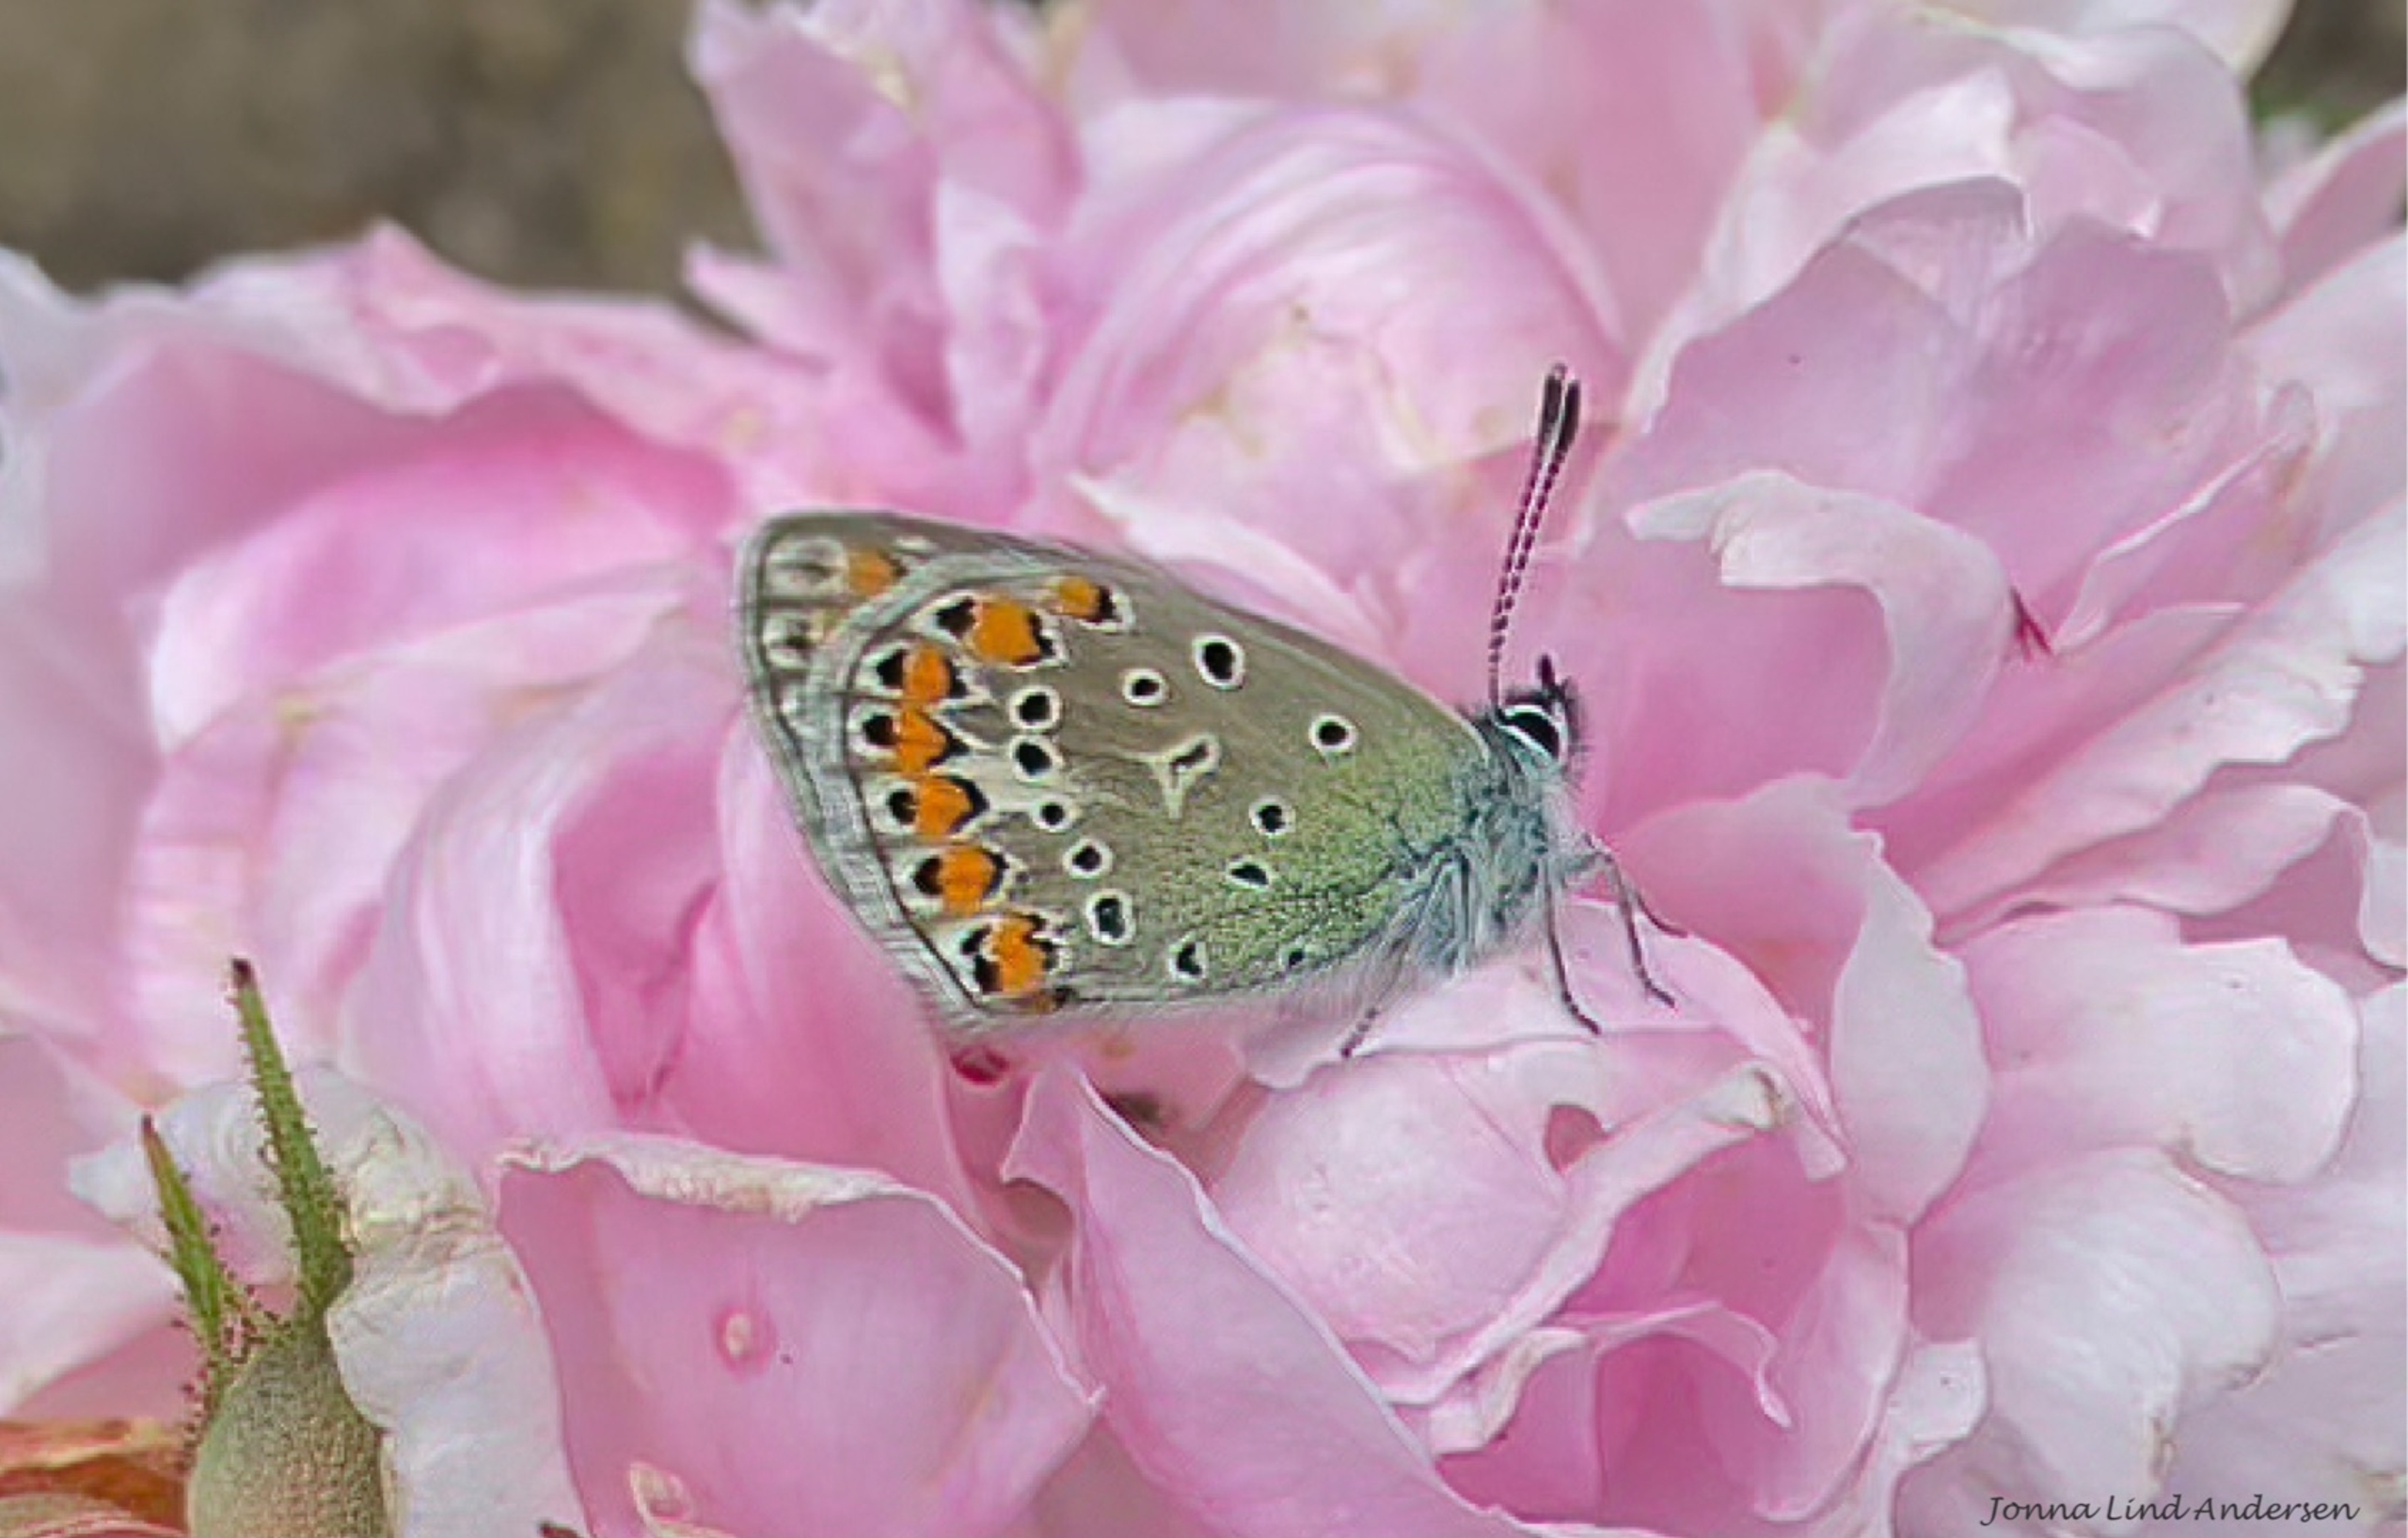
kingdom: Animalia
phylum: Arthropoda
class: Insecta
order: Lepidoptera
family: Lycaenidae
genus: Polyommatus
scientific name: Polyommatus icarus
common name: Almindelig blåfugl
